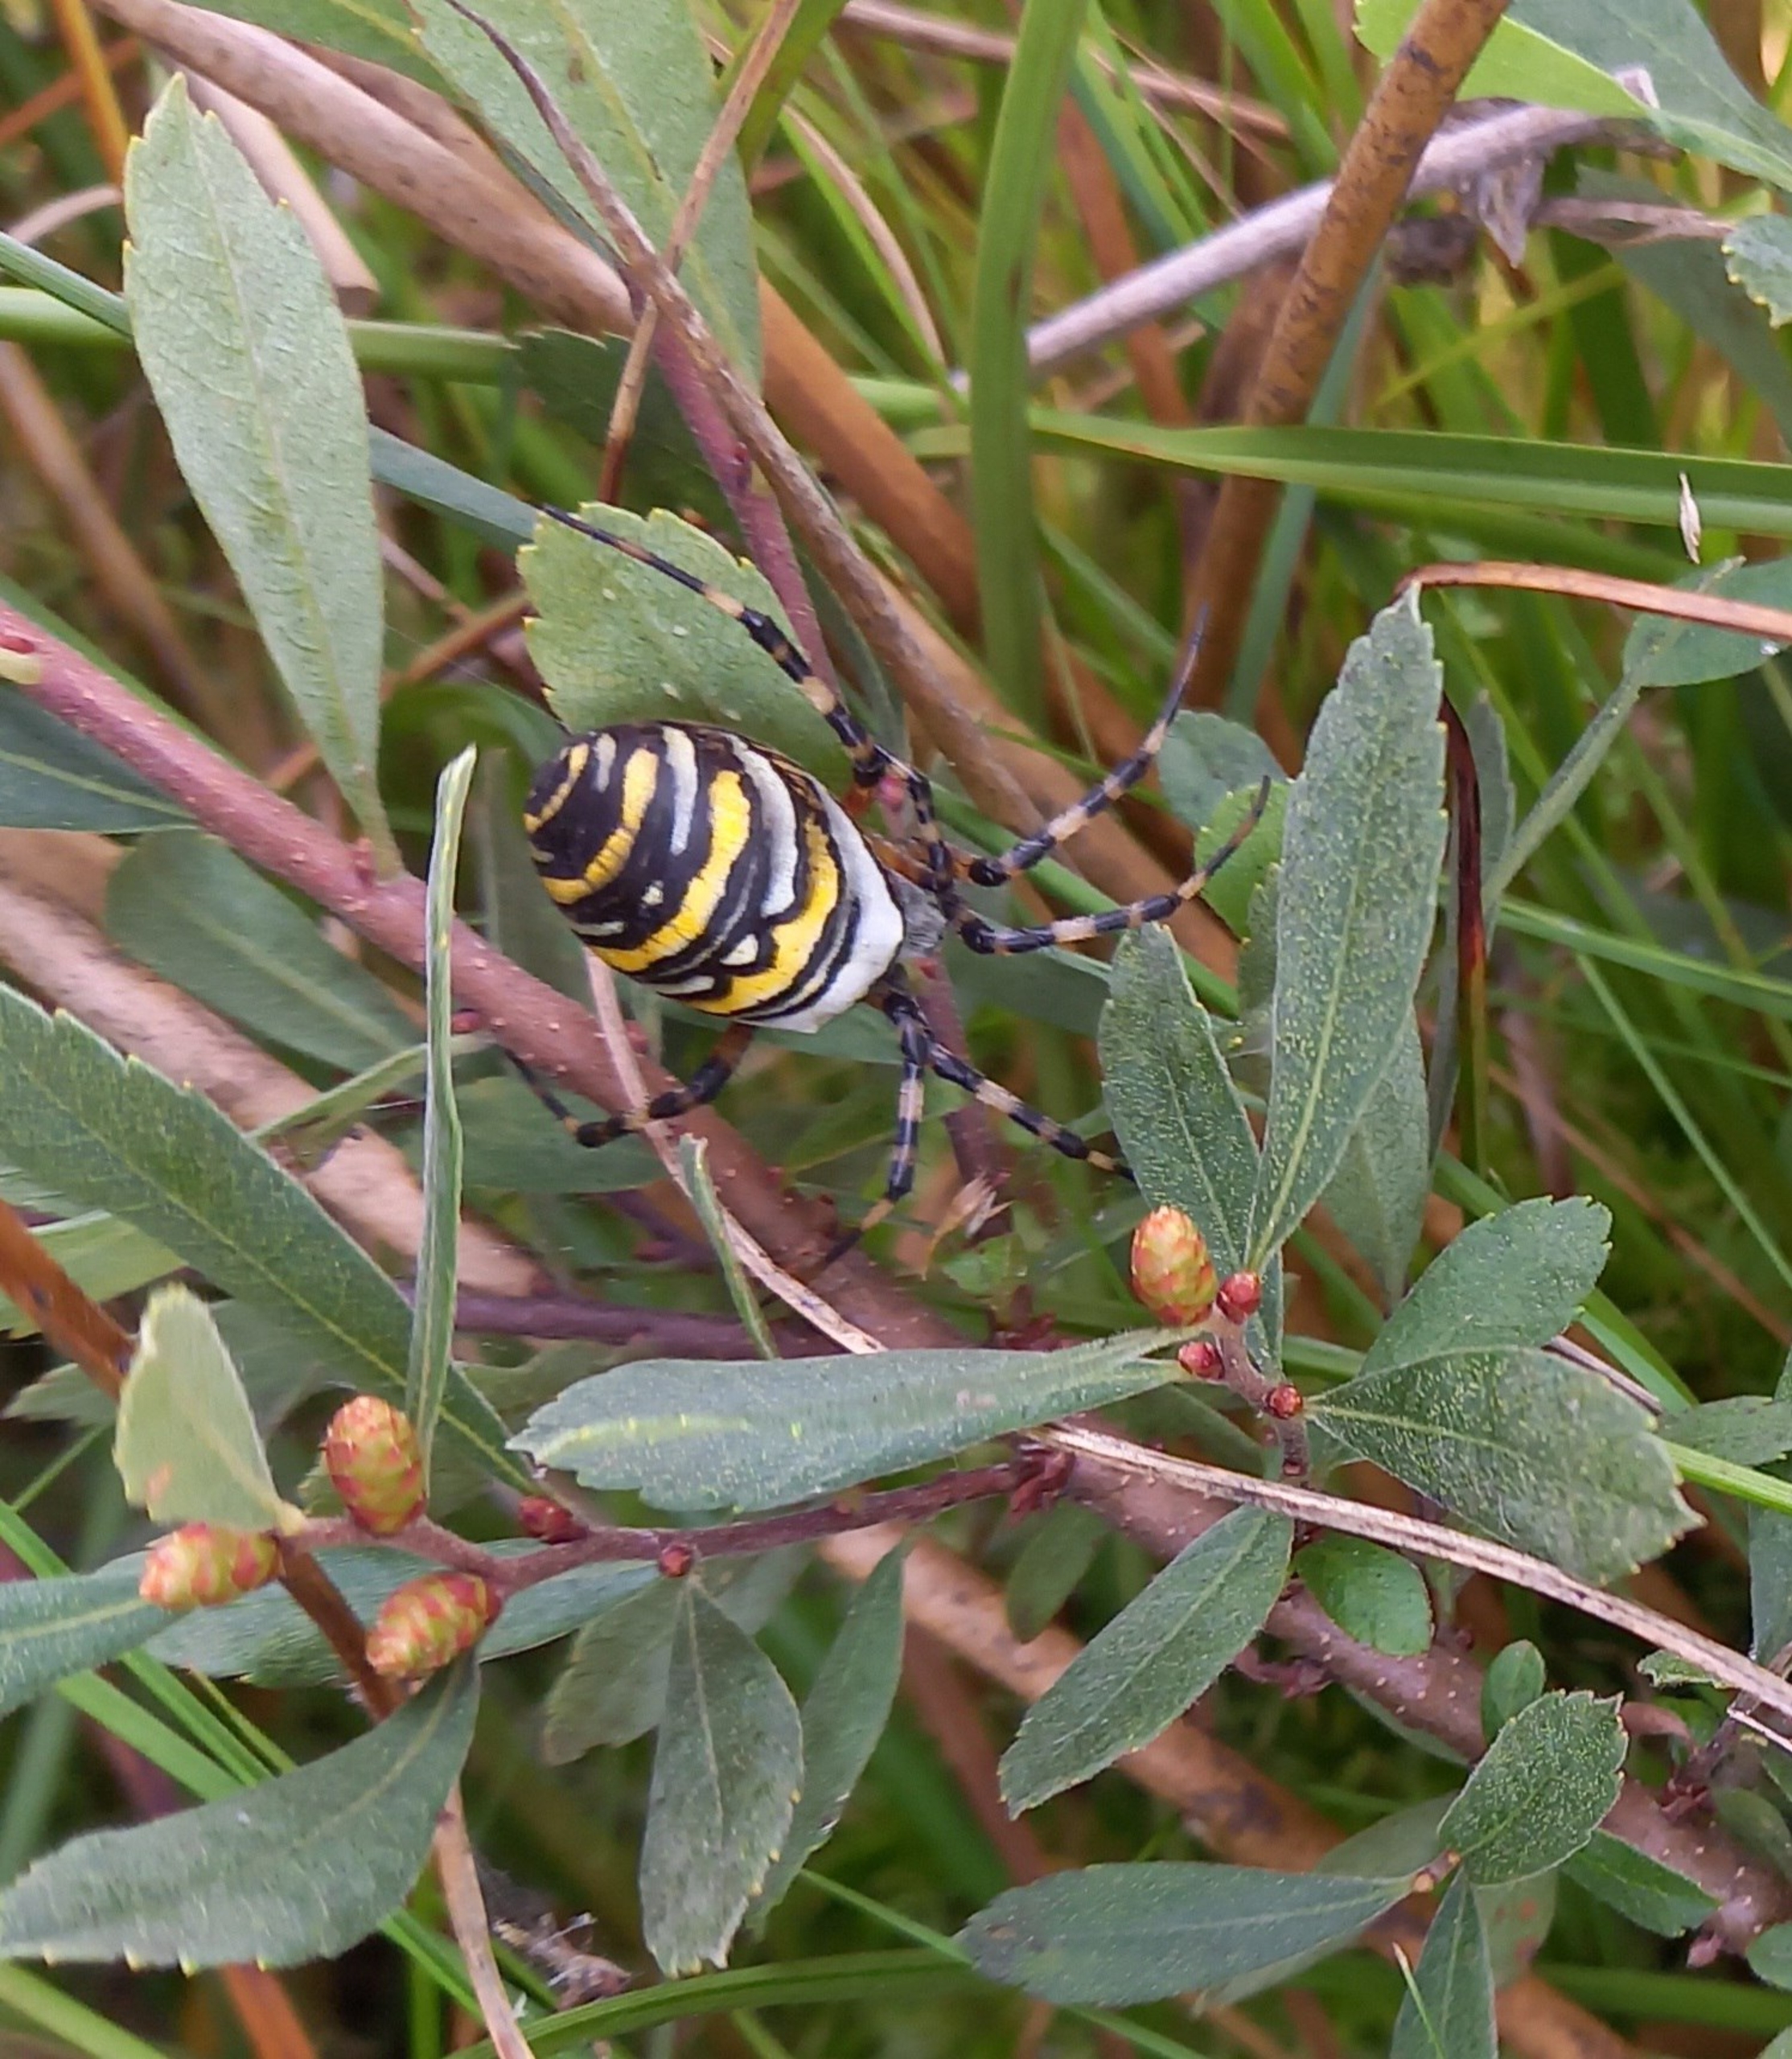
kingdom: Animalia
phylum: Arthropoda
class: Arachnida
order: Araneae
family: Araneidae
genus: Argiope
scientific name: Argiope bruennichi
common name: Hvepseedderkop
